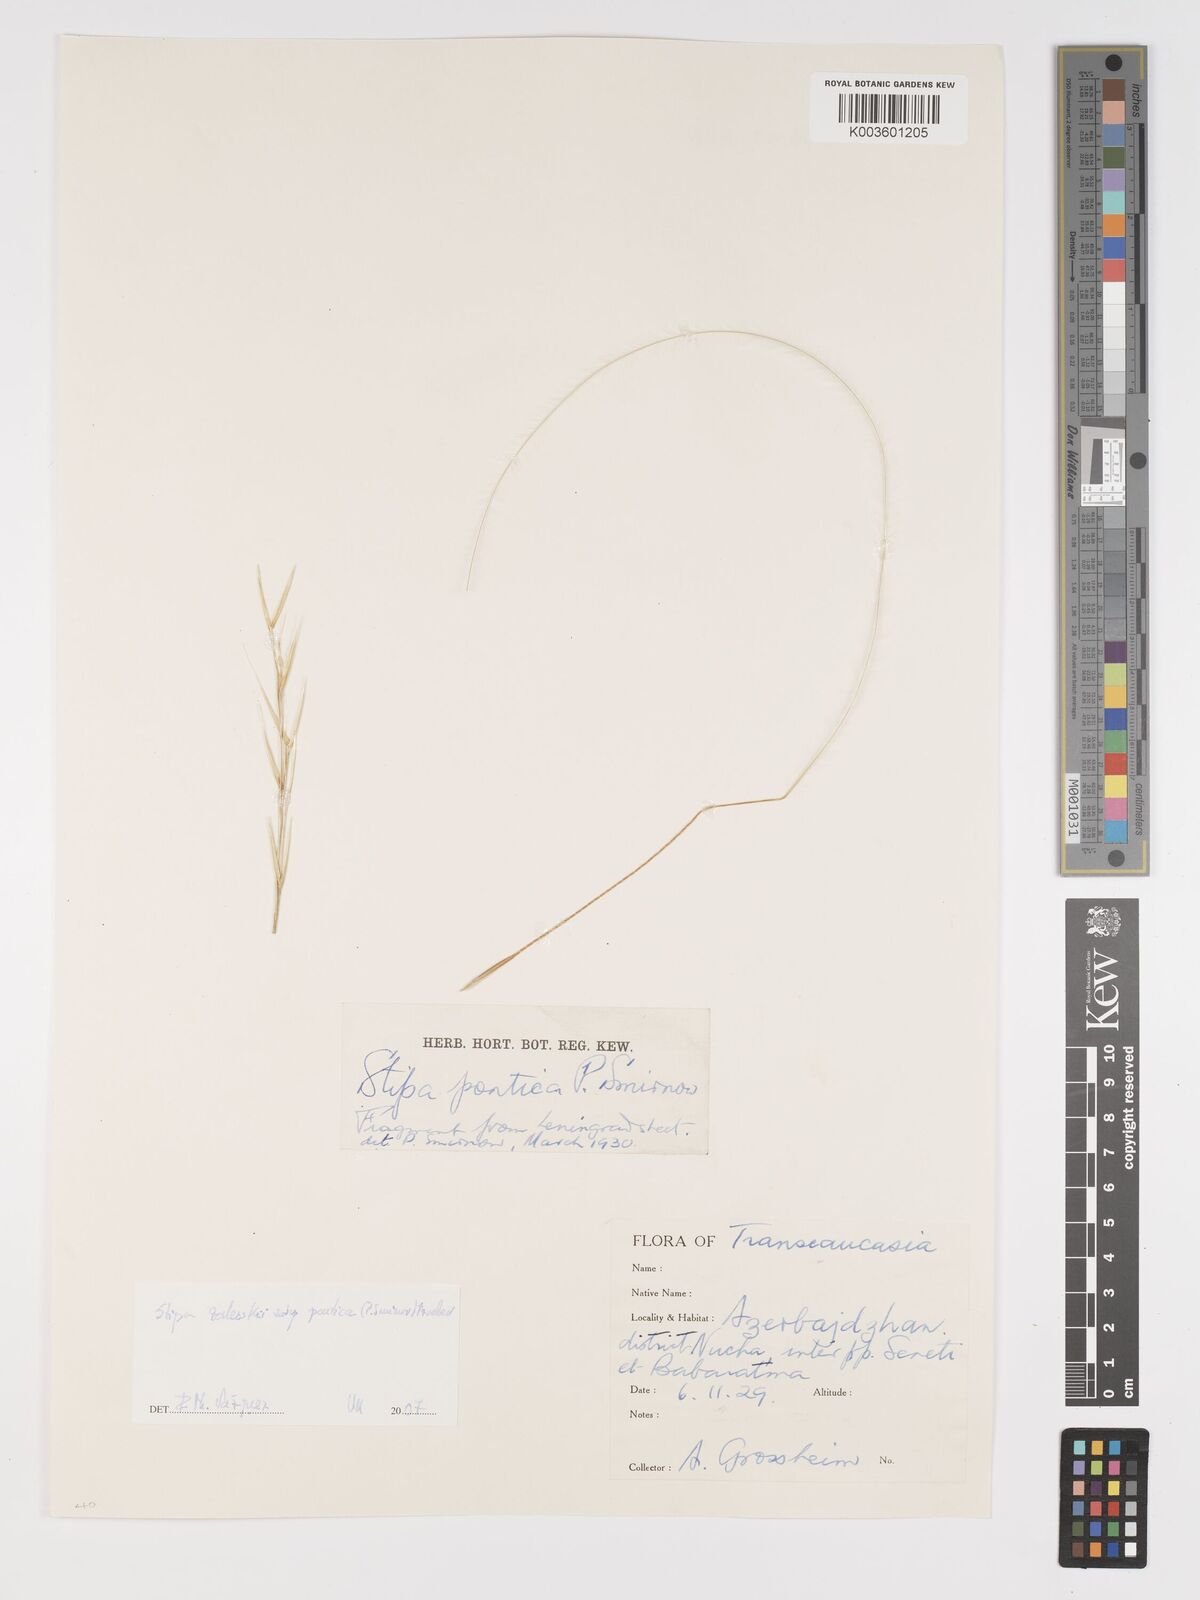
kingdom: Plantae
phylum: Tracheophyta
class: Liliopsida
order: Poales
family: Poaceae
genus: Stipa
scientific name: Stipa
